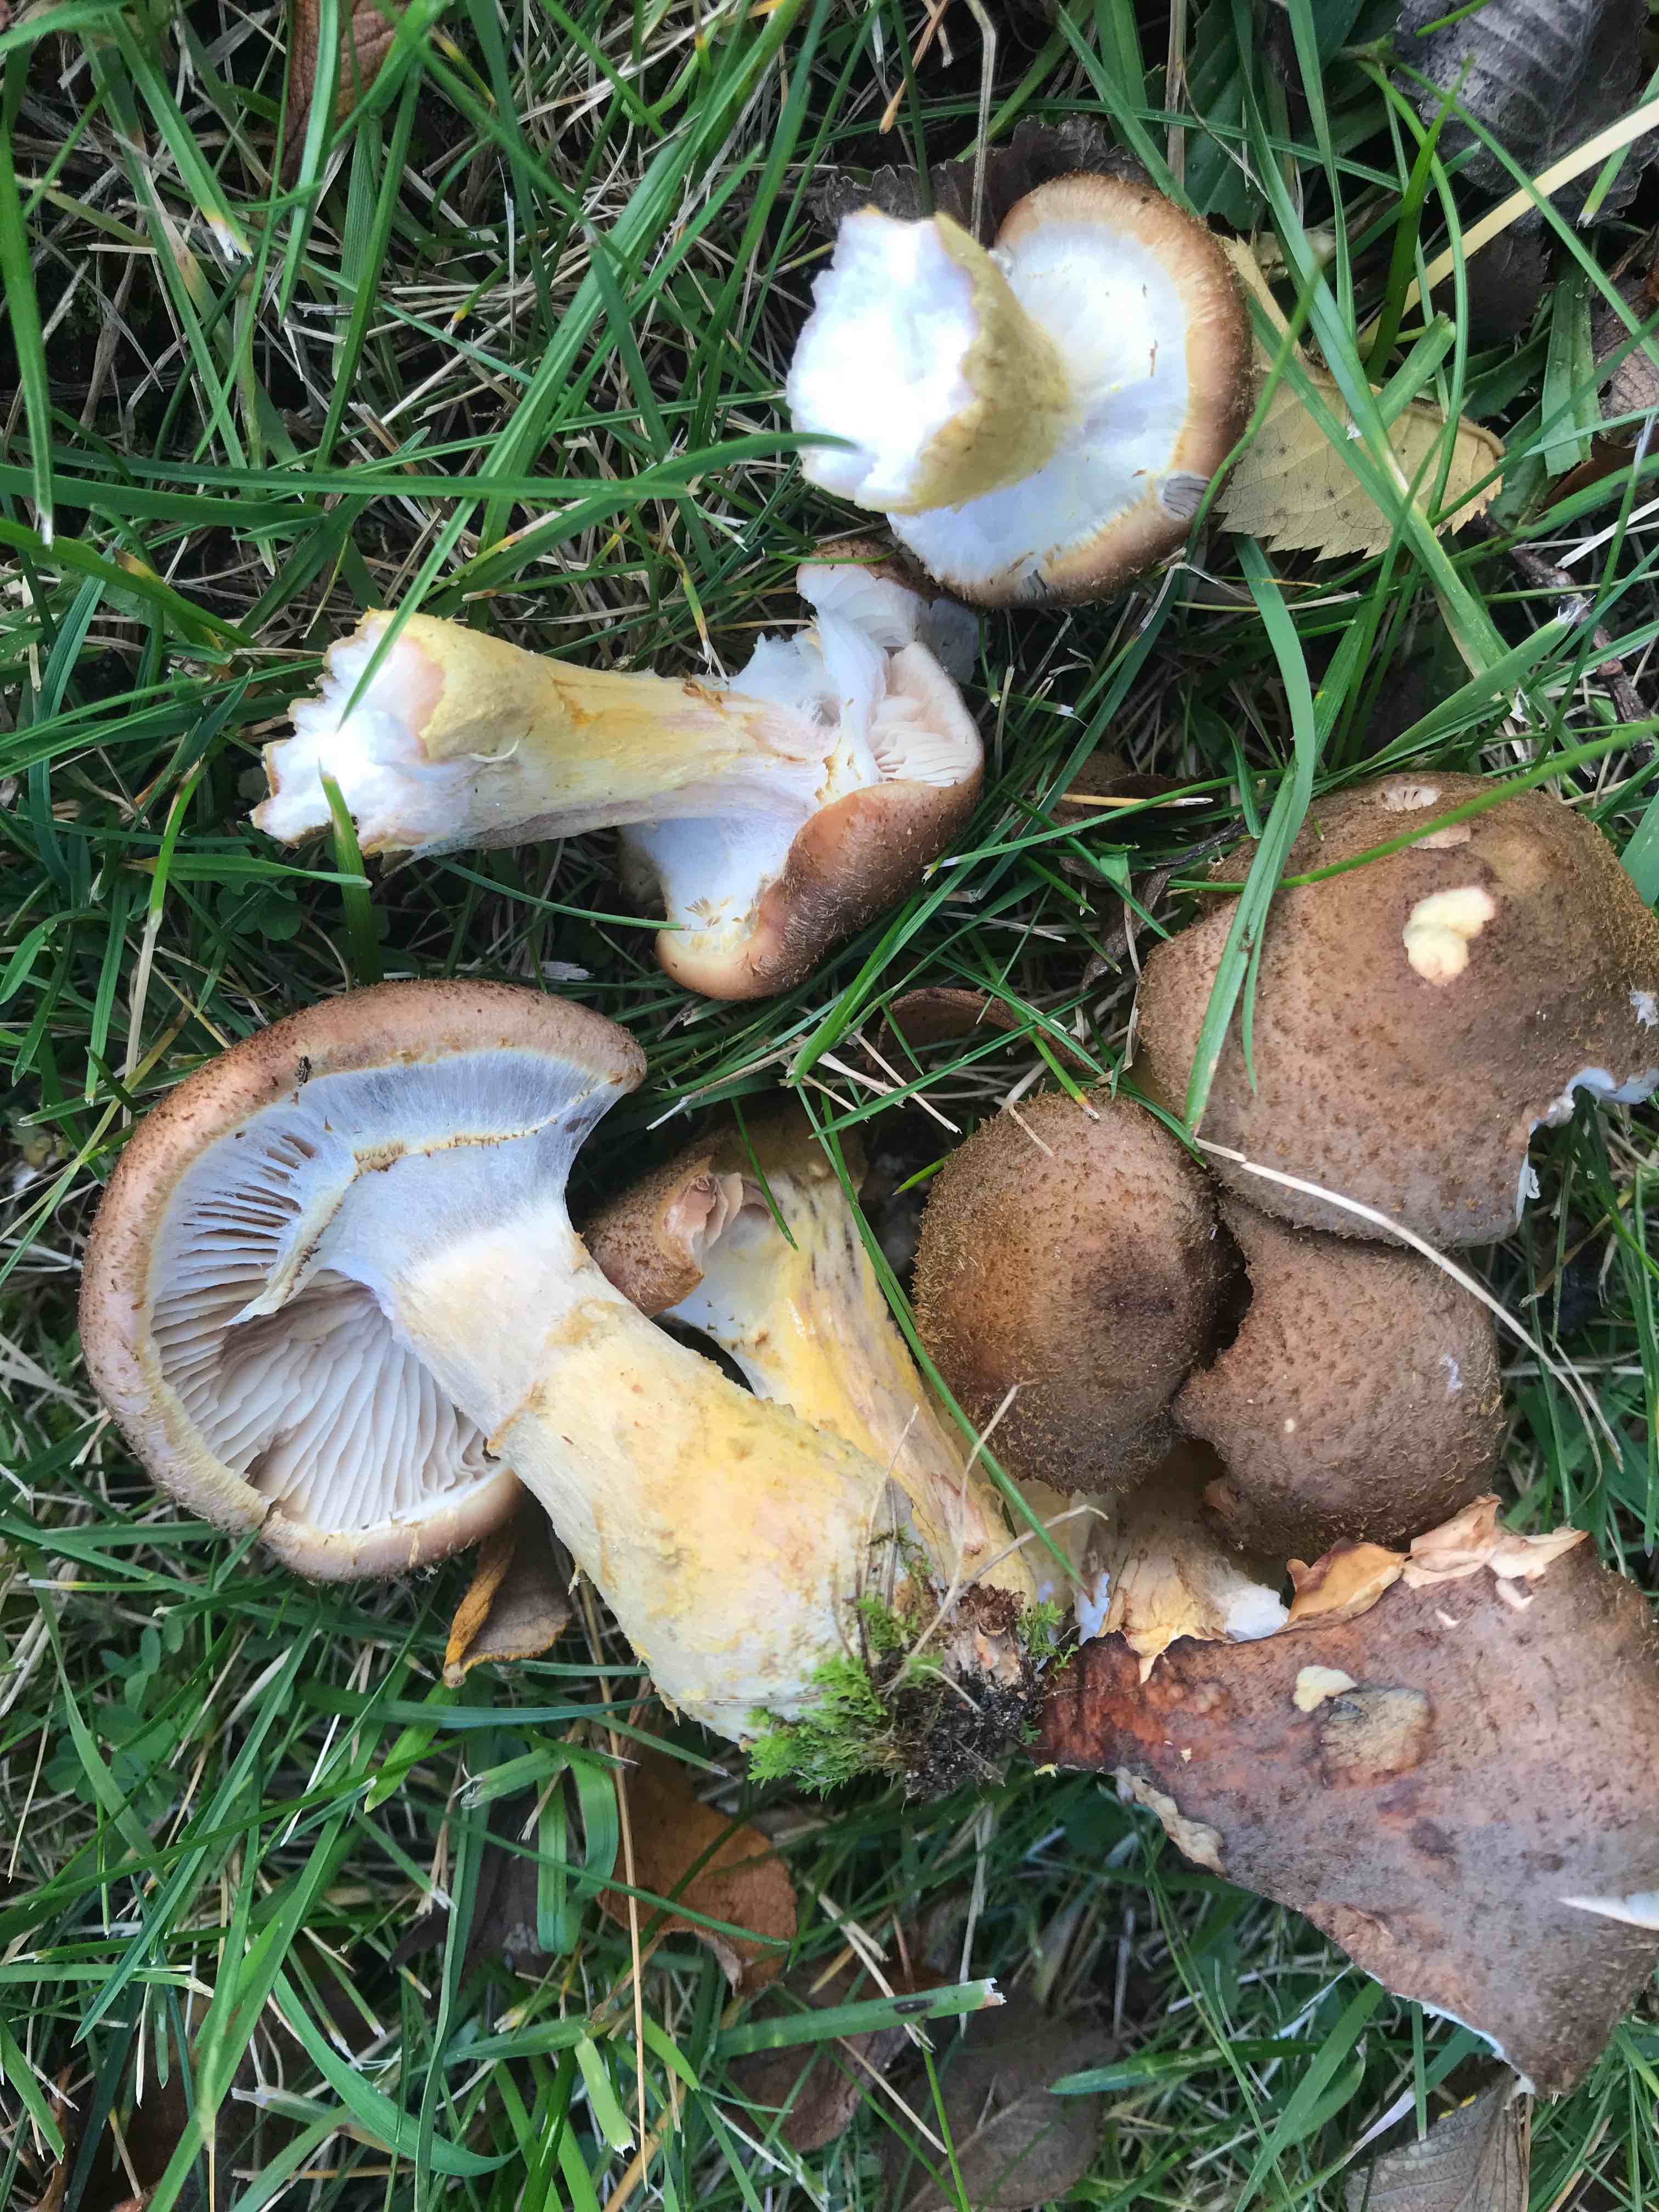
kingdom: Fungi
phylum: Basidiomycota
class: Agaricomycetes
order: Agaricales
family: Physalacriaceae
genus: Armillaria
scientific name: Armillaria lutea
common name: køllestokket honningsvamp
